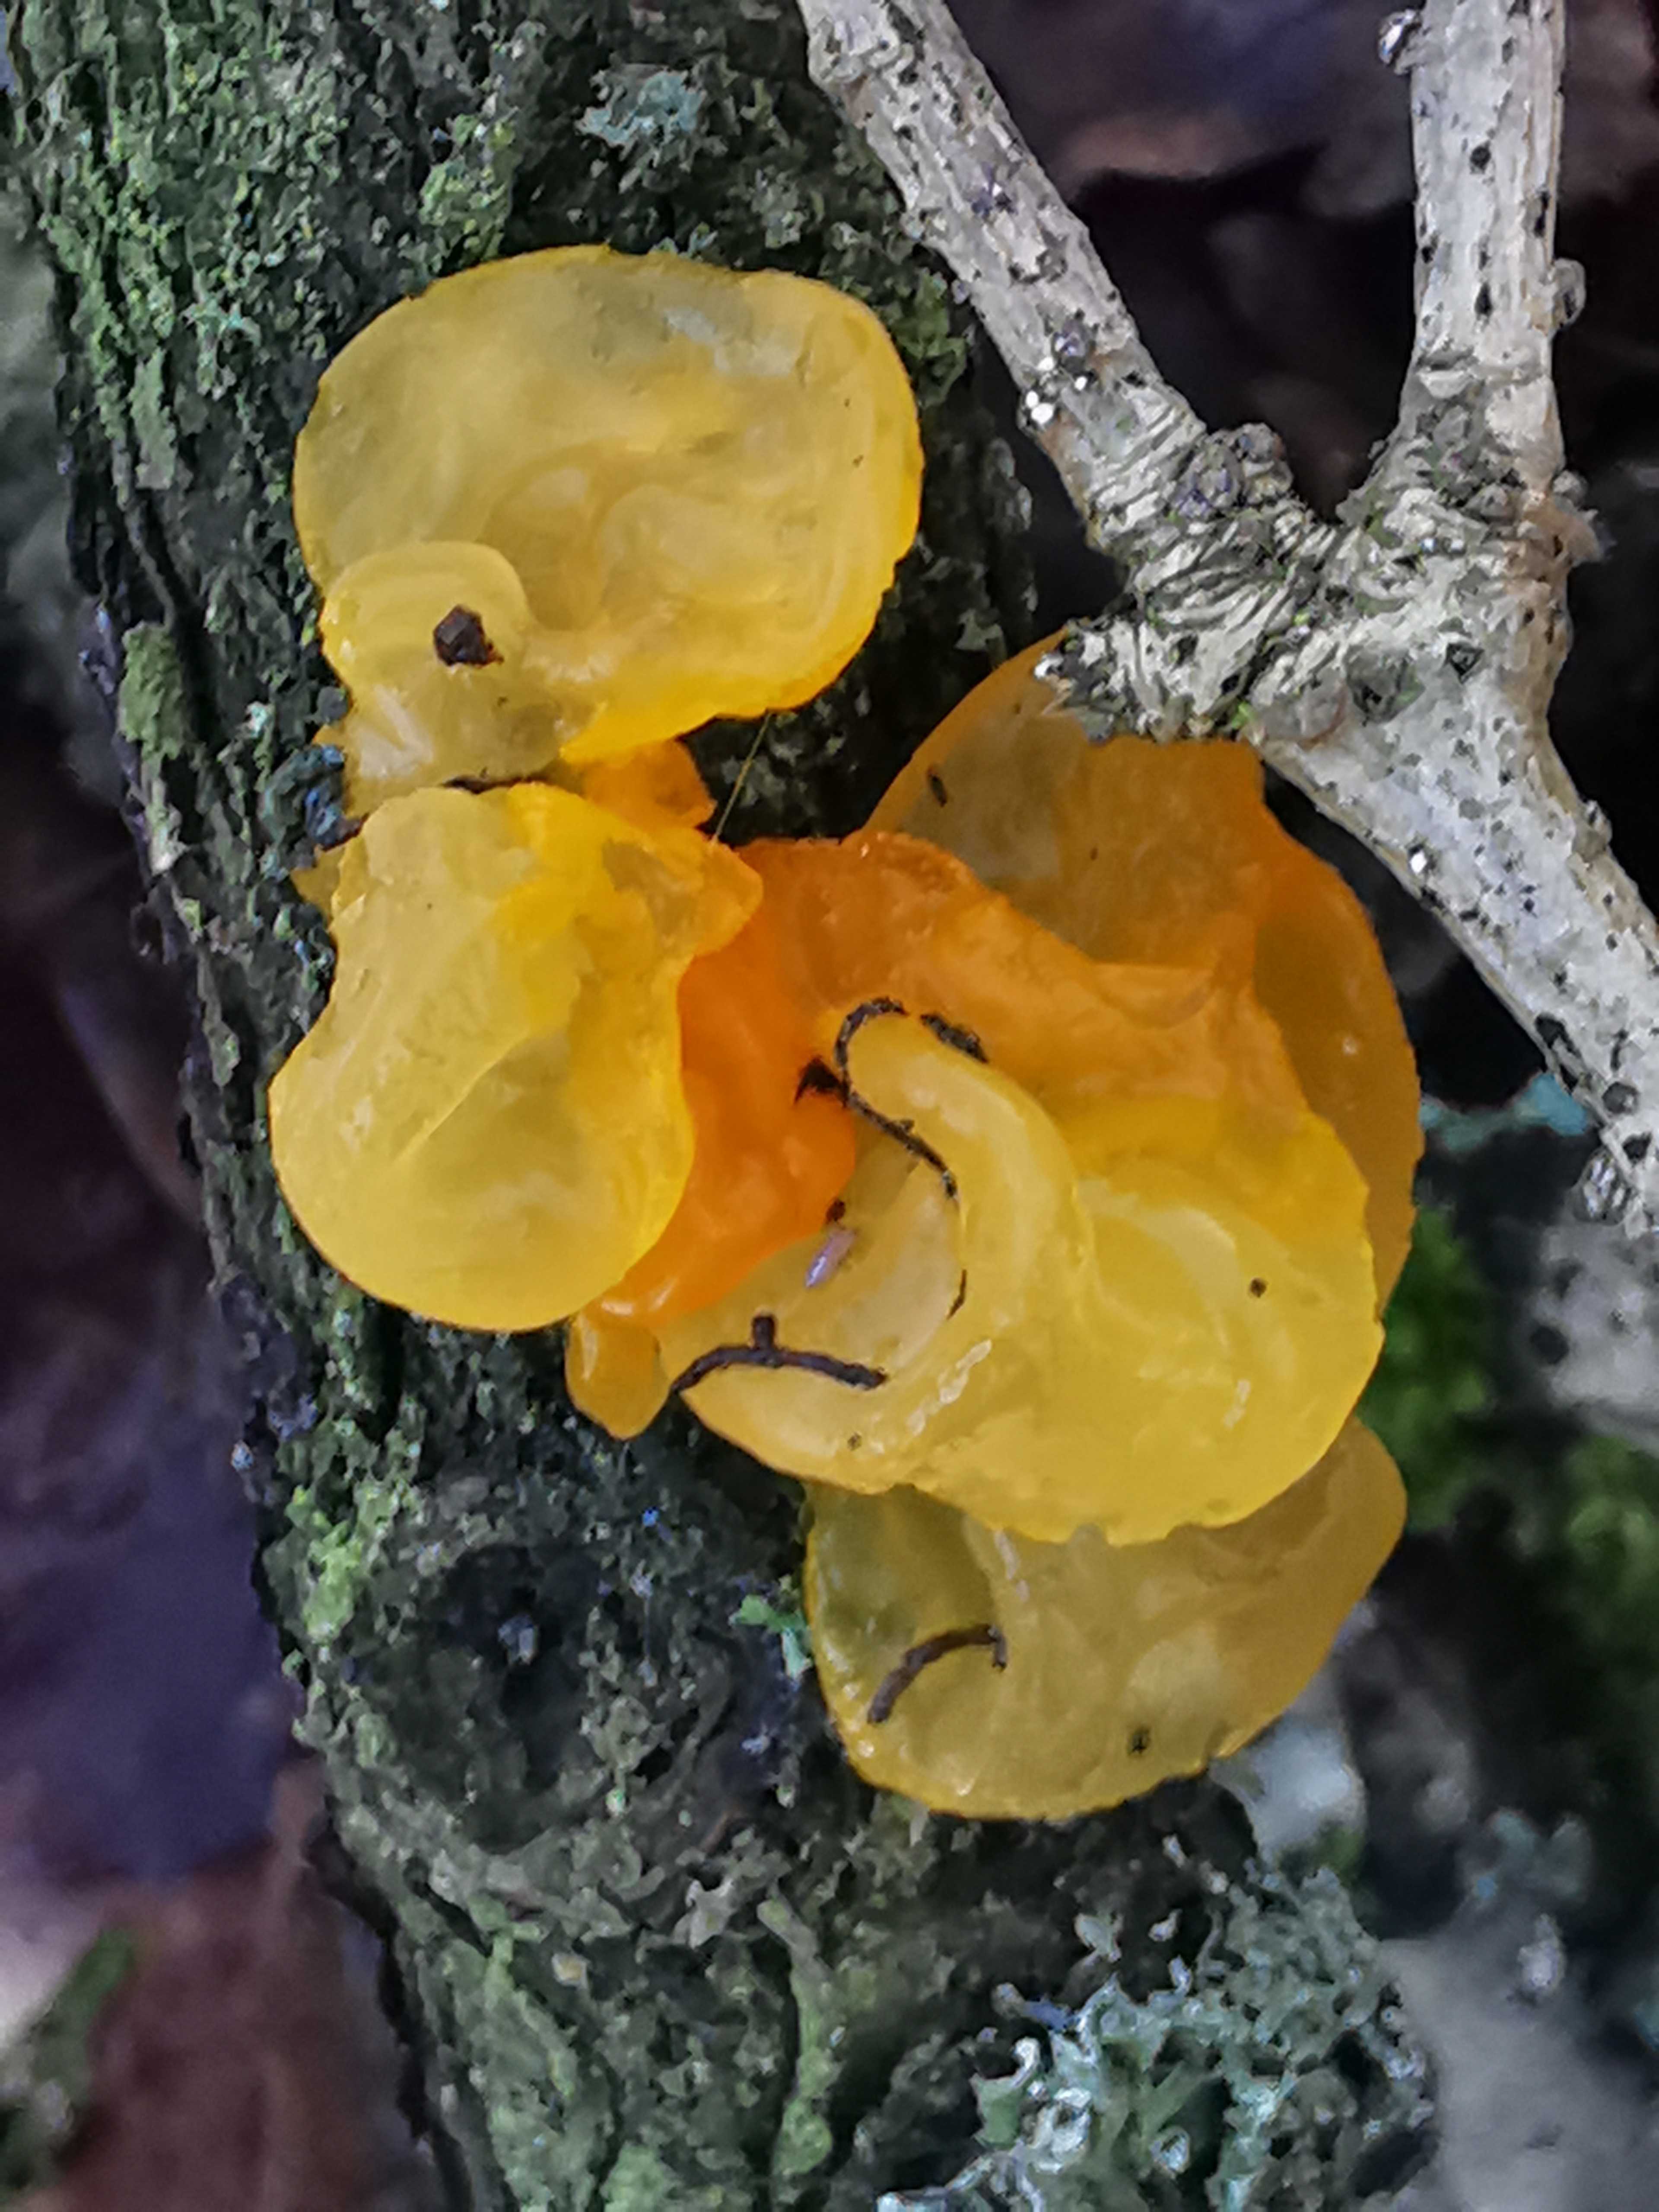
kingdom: Fungi
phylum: Basidiomycota
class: Tremellomycetes
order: Tremellales
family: Tremellaceae
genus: Tremella
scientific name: Tremella mesenterica
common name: gul bævresvamp
